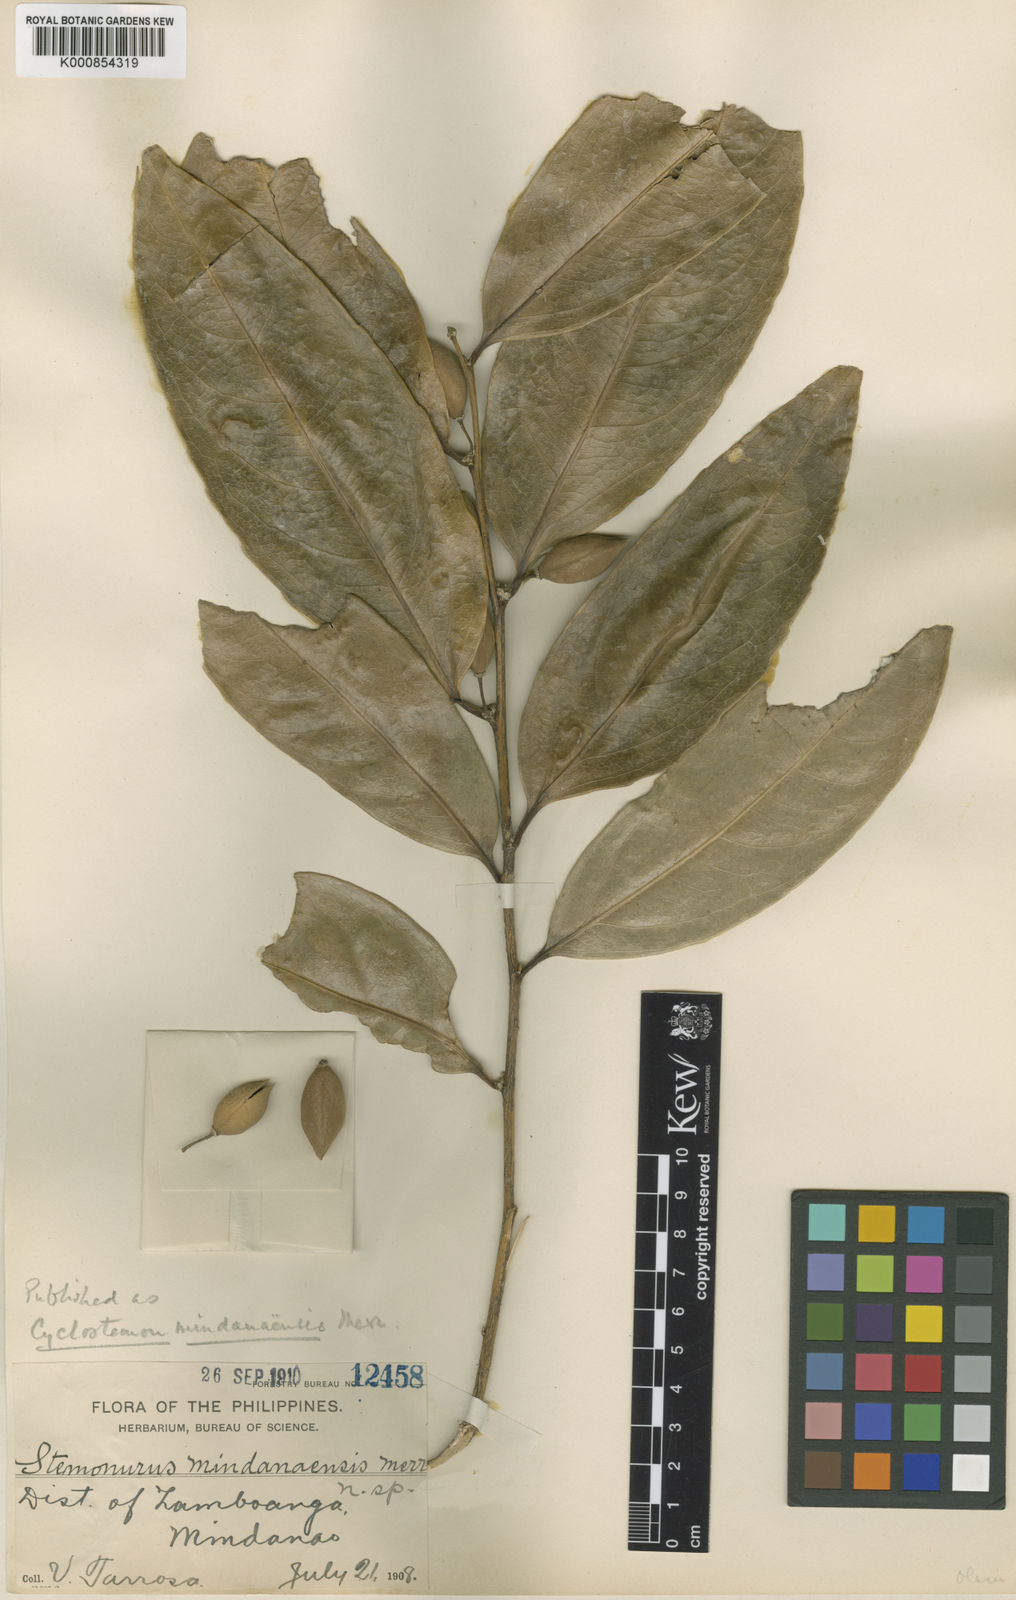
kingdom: Plantae
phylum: Tracheophyta
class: Magnoliopsida
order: Malpighiales
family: Putranjivaceae
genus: Drypetes
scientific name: Drypetes sibuyanensis
